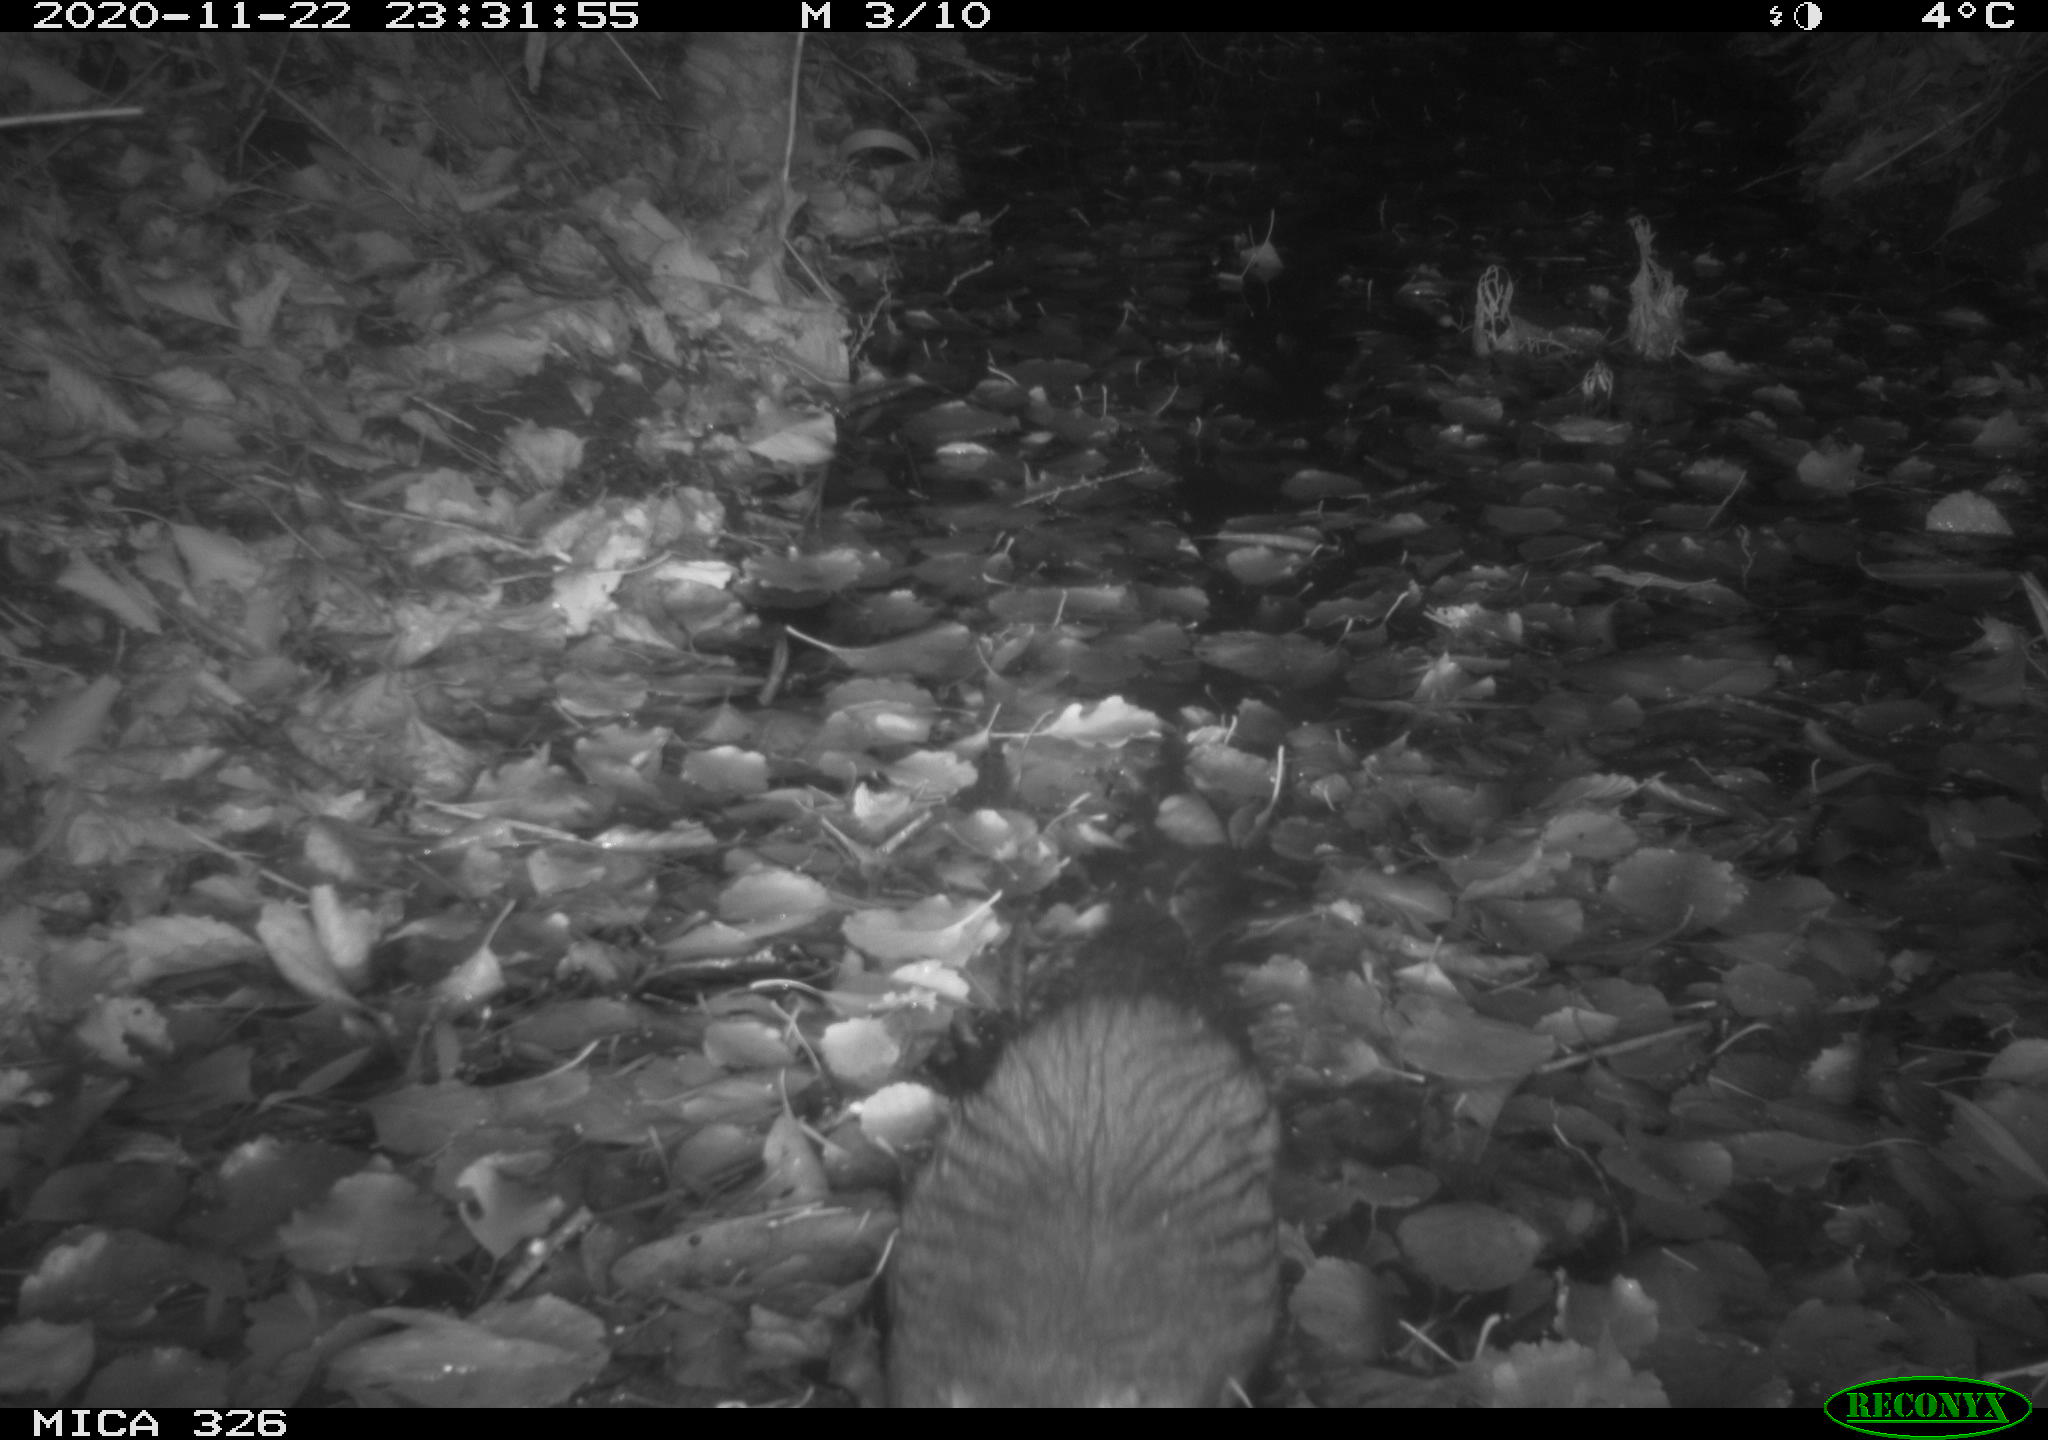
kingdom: Animalia
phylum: Chordata
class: Mammalia
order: Rodentia
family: Myocastoridae
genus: Myocastor
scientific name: Myocastor coypus
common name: Coypu
